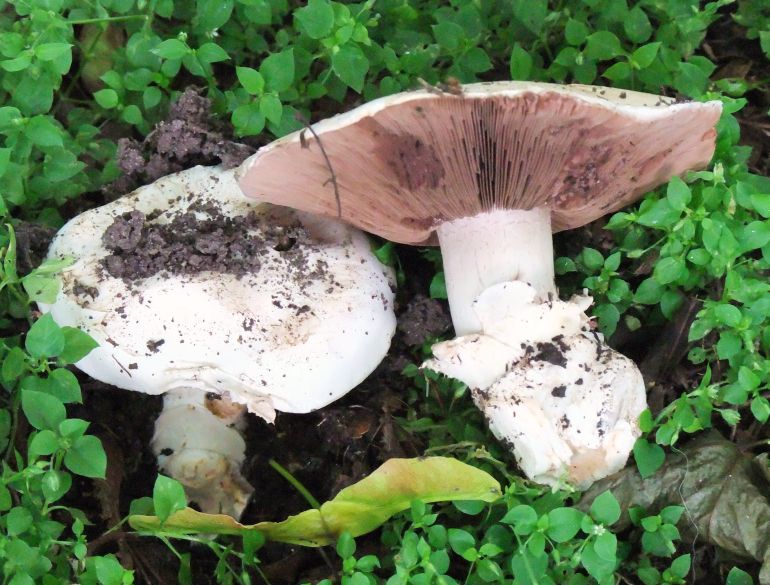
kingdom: Fungi
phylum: Basidiomycota
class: Agaricomycetes
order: Agaricales
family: Agaricaceae
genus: Agaricus
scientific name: Agaricus bitorquis
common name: vej-champignon
